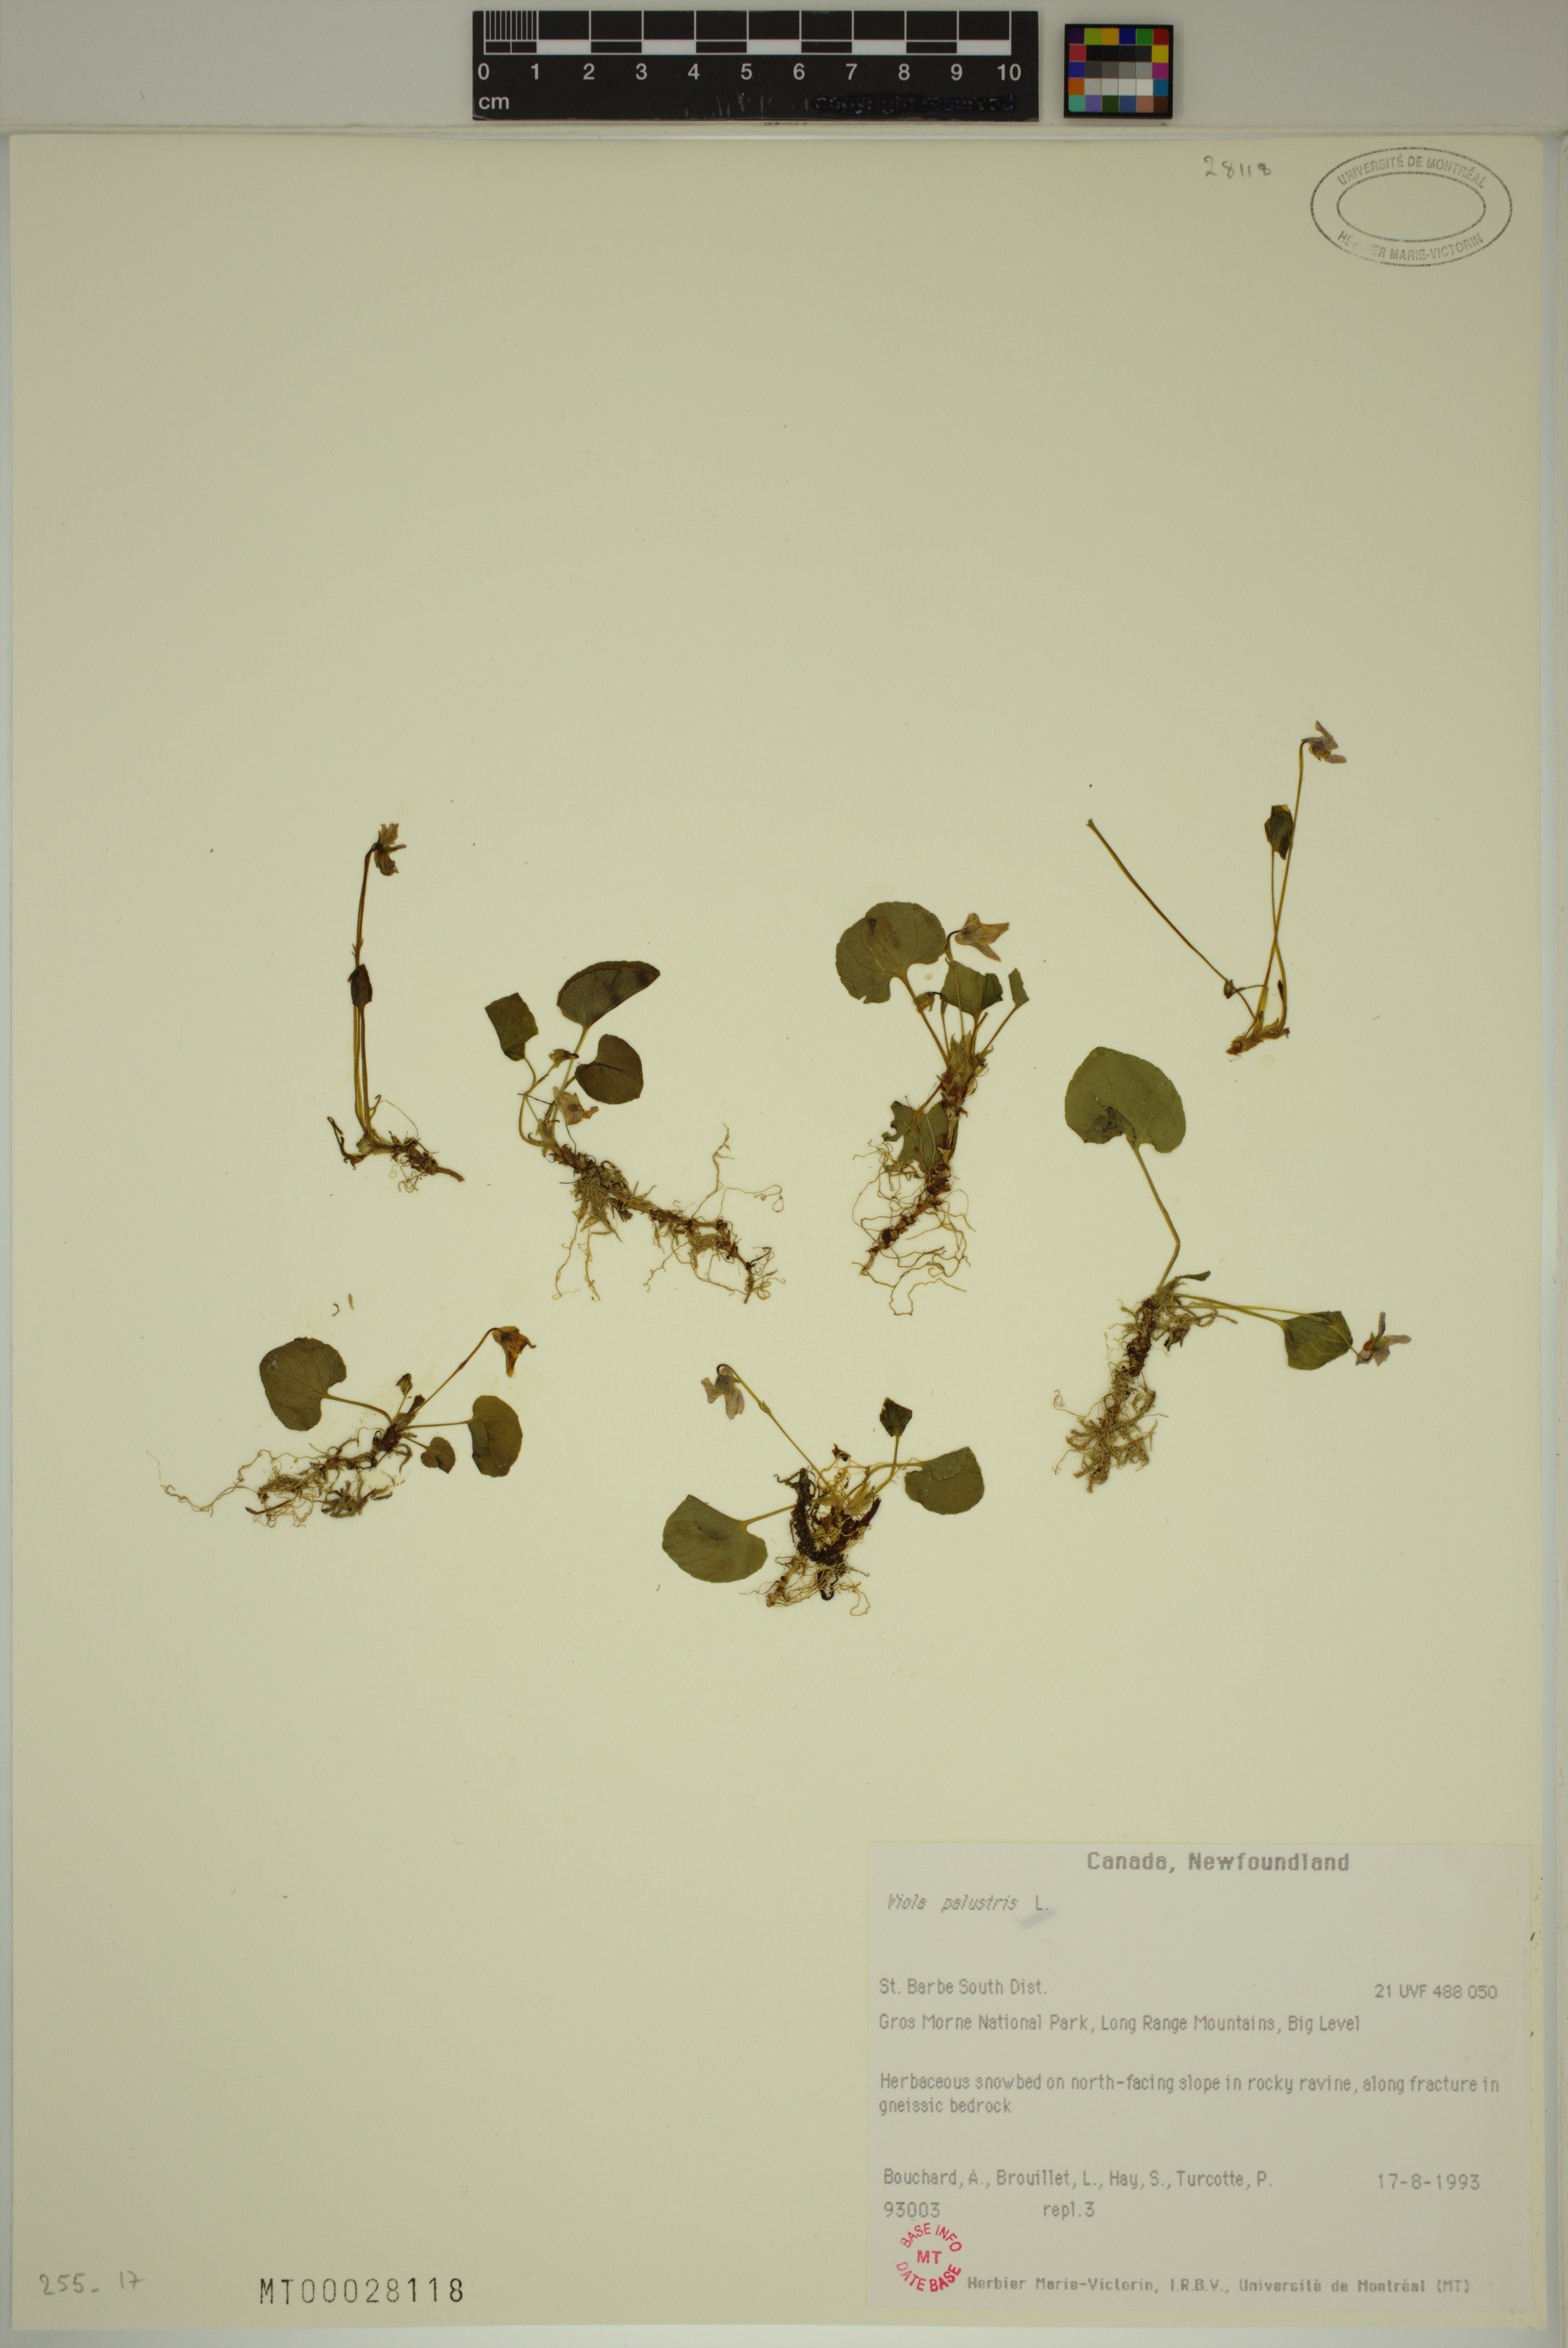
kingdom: Plantae
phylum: Tracheophyta
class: Magnoliopsida
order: Malpighiales
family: Violaceae
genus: Viola
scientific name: Viola palustris
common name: Marsh violet
